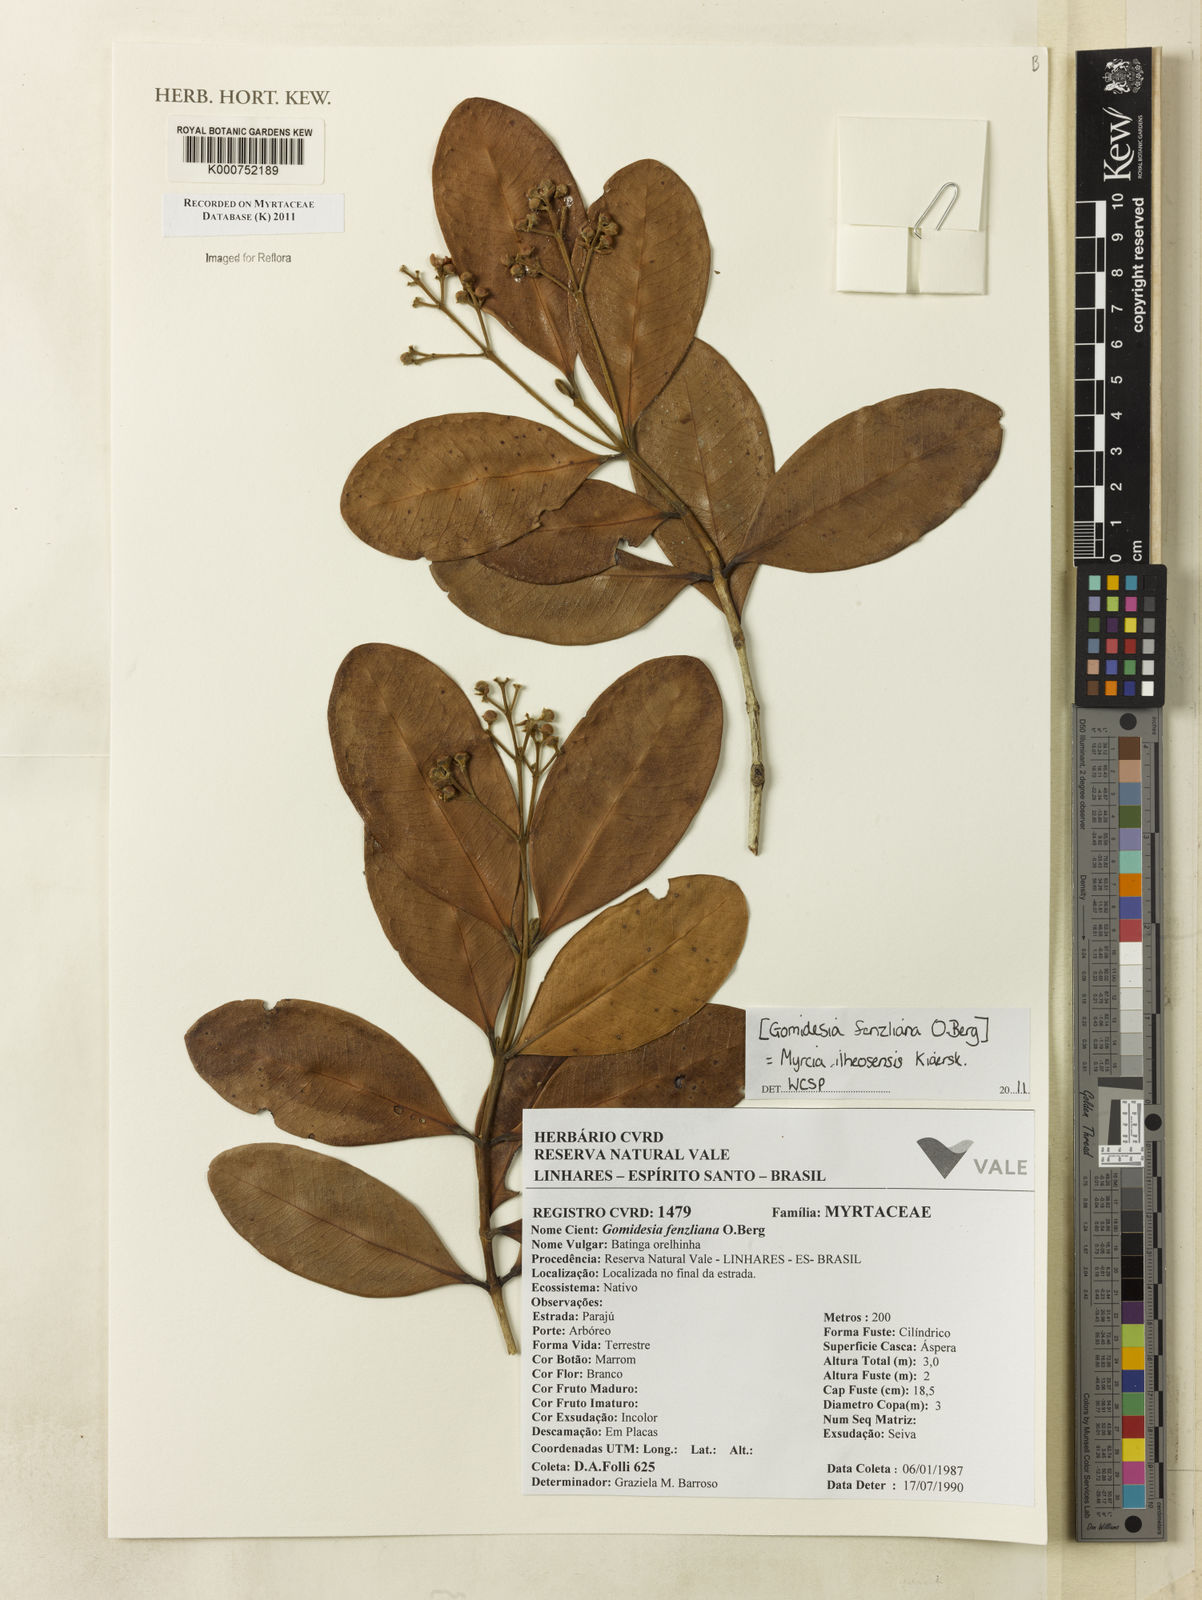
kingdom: Plantae
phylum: Tracheophyta
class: Magnoliopsida
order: Myrtales
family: Myrtaceae
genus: Myrcia
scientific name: Myrcia ilheosensis
